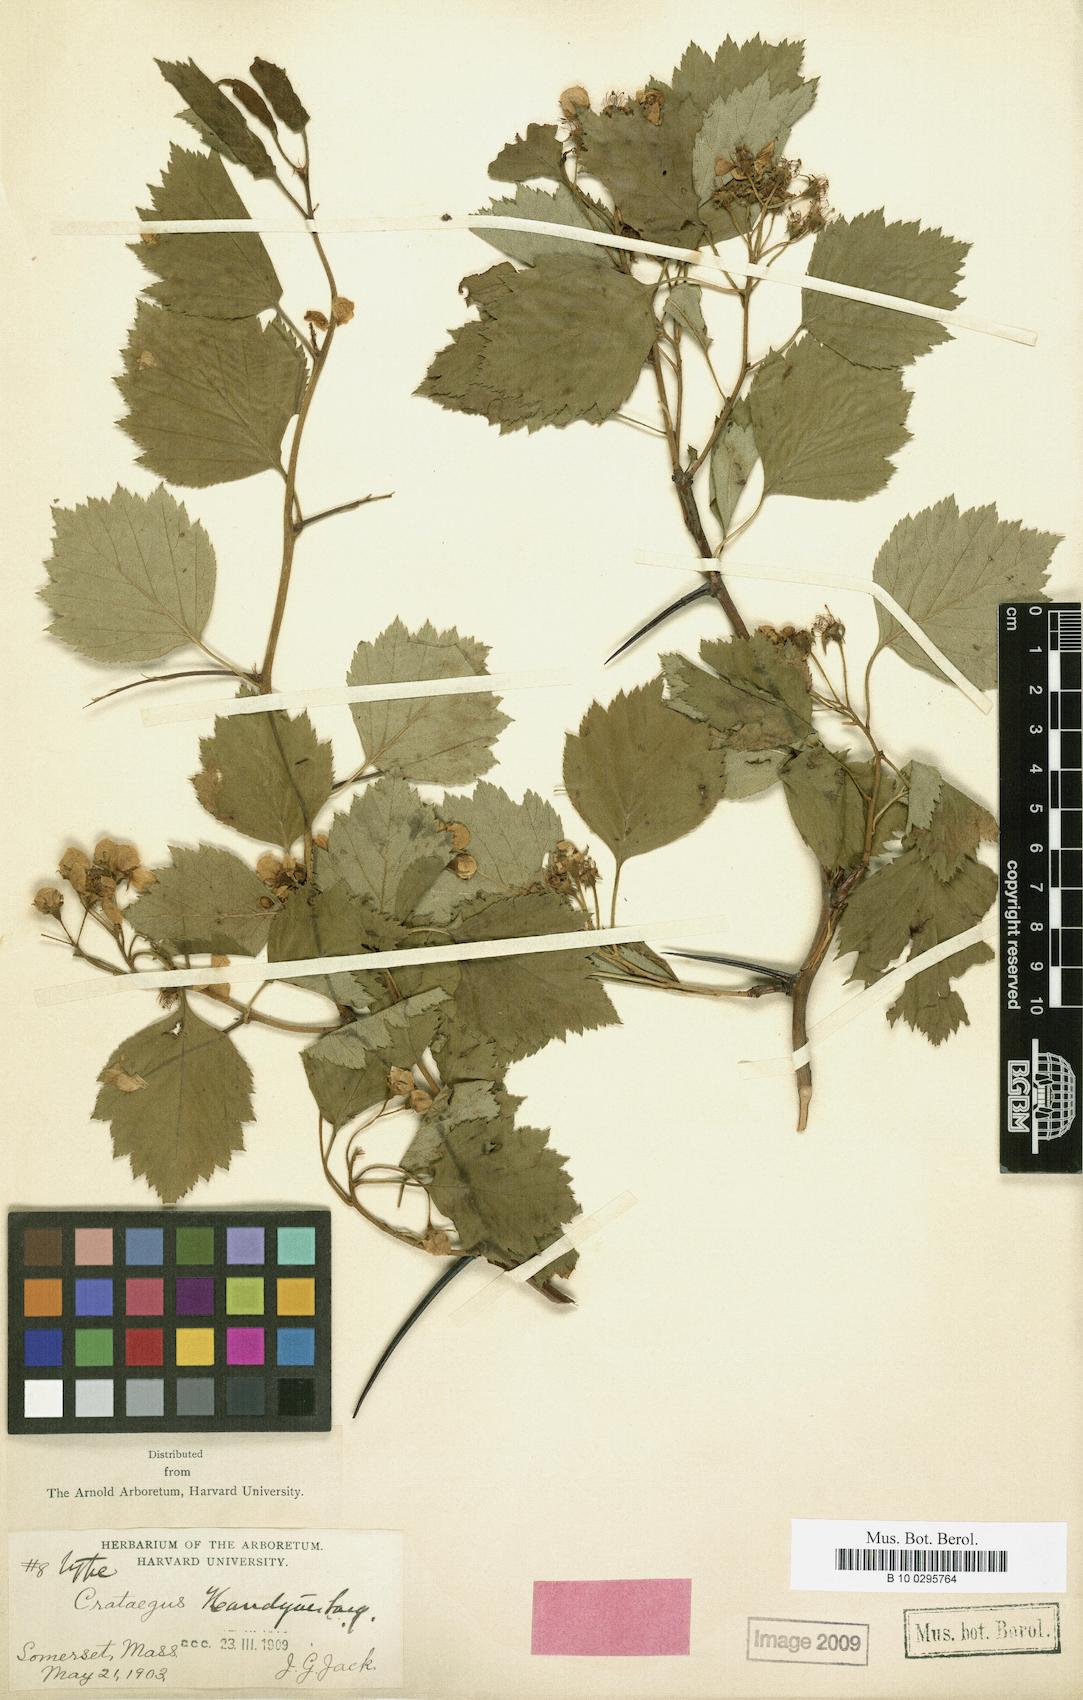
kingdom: Plantae
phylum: Tracheophyta
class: Magnoliopsida
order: Rosales
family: Rosaceae
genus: Crataegus
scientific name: Crataegus handyae
